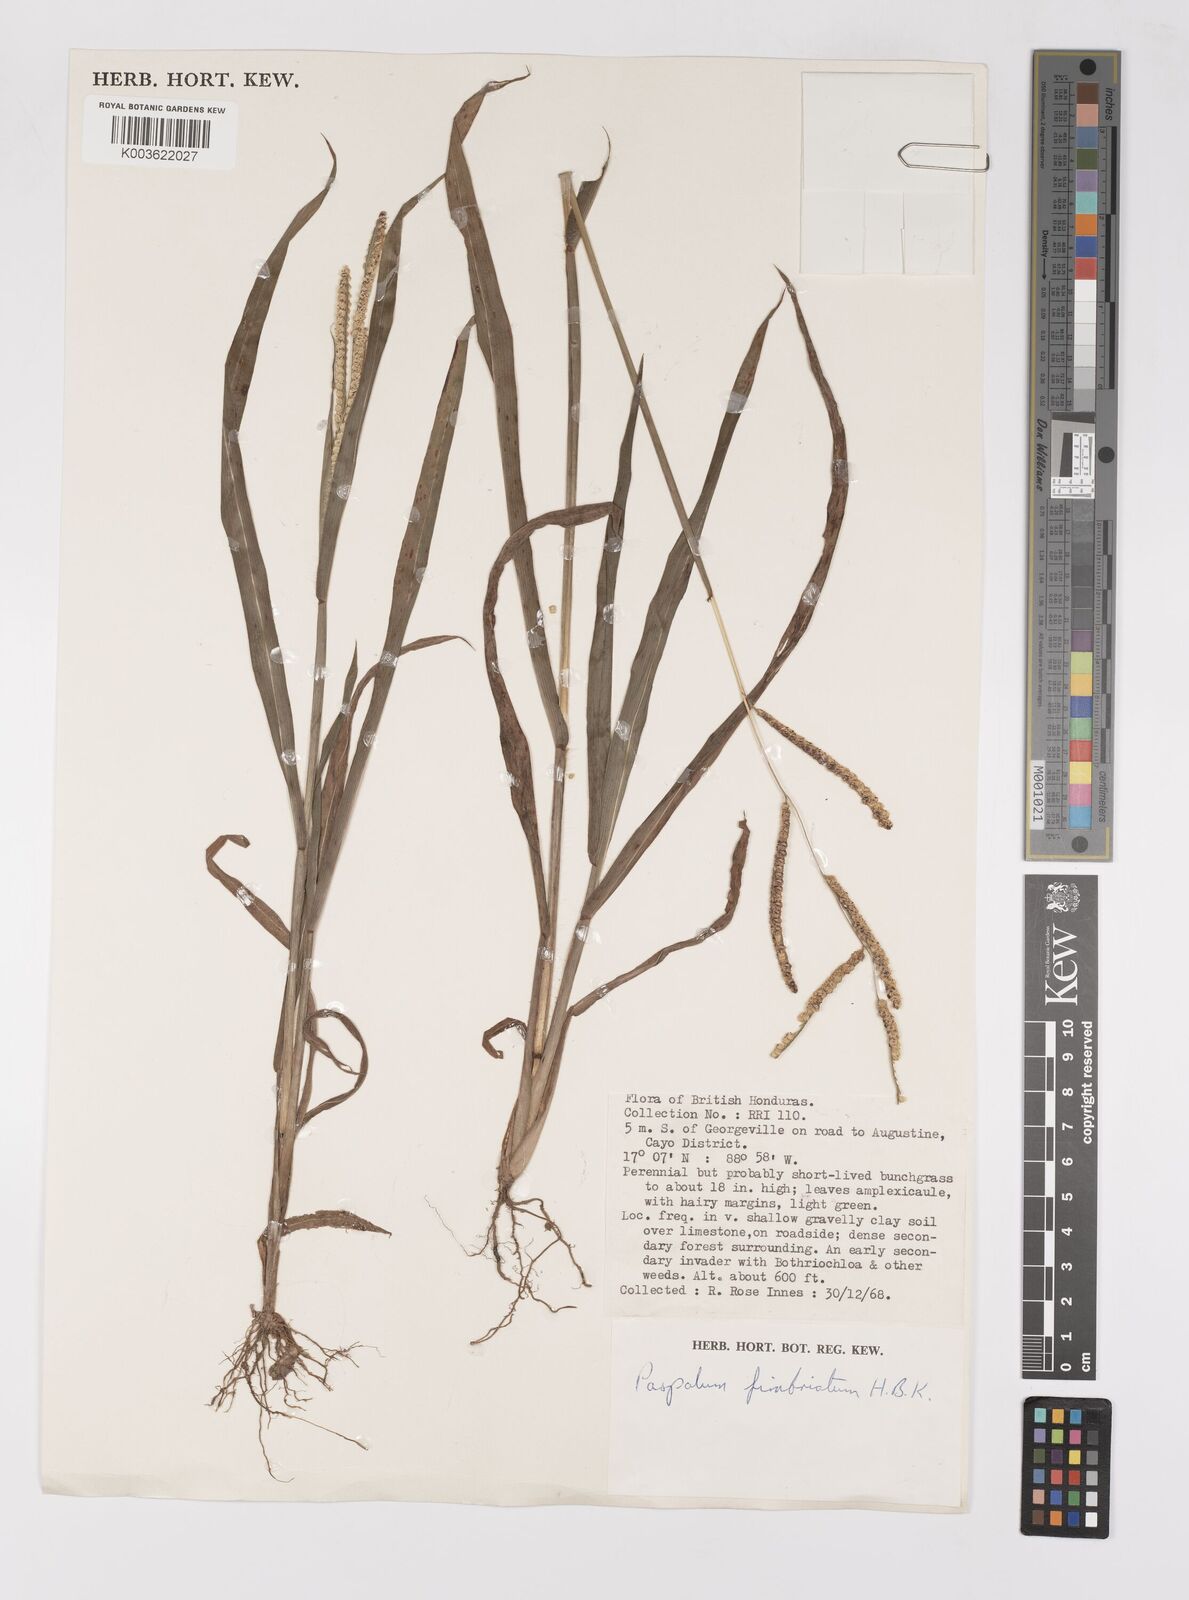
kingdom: Plantae
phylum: Tracheophyta
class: Liliopsida
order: Poales
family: Poaceae
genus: Paspalum
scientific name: Paspalum fimbriatum
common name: Panama crowngrass
